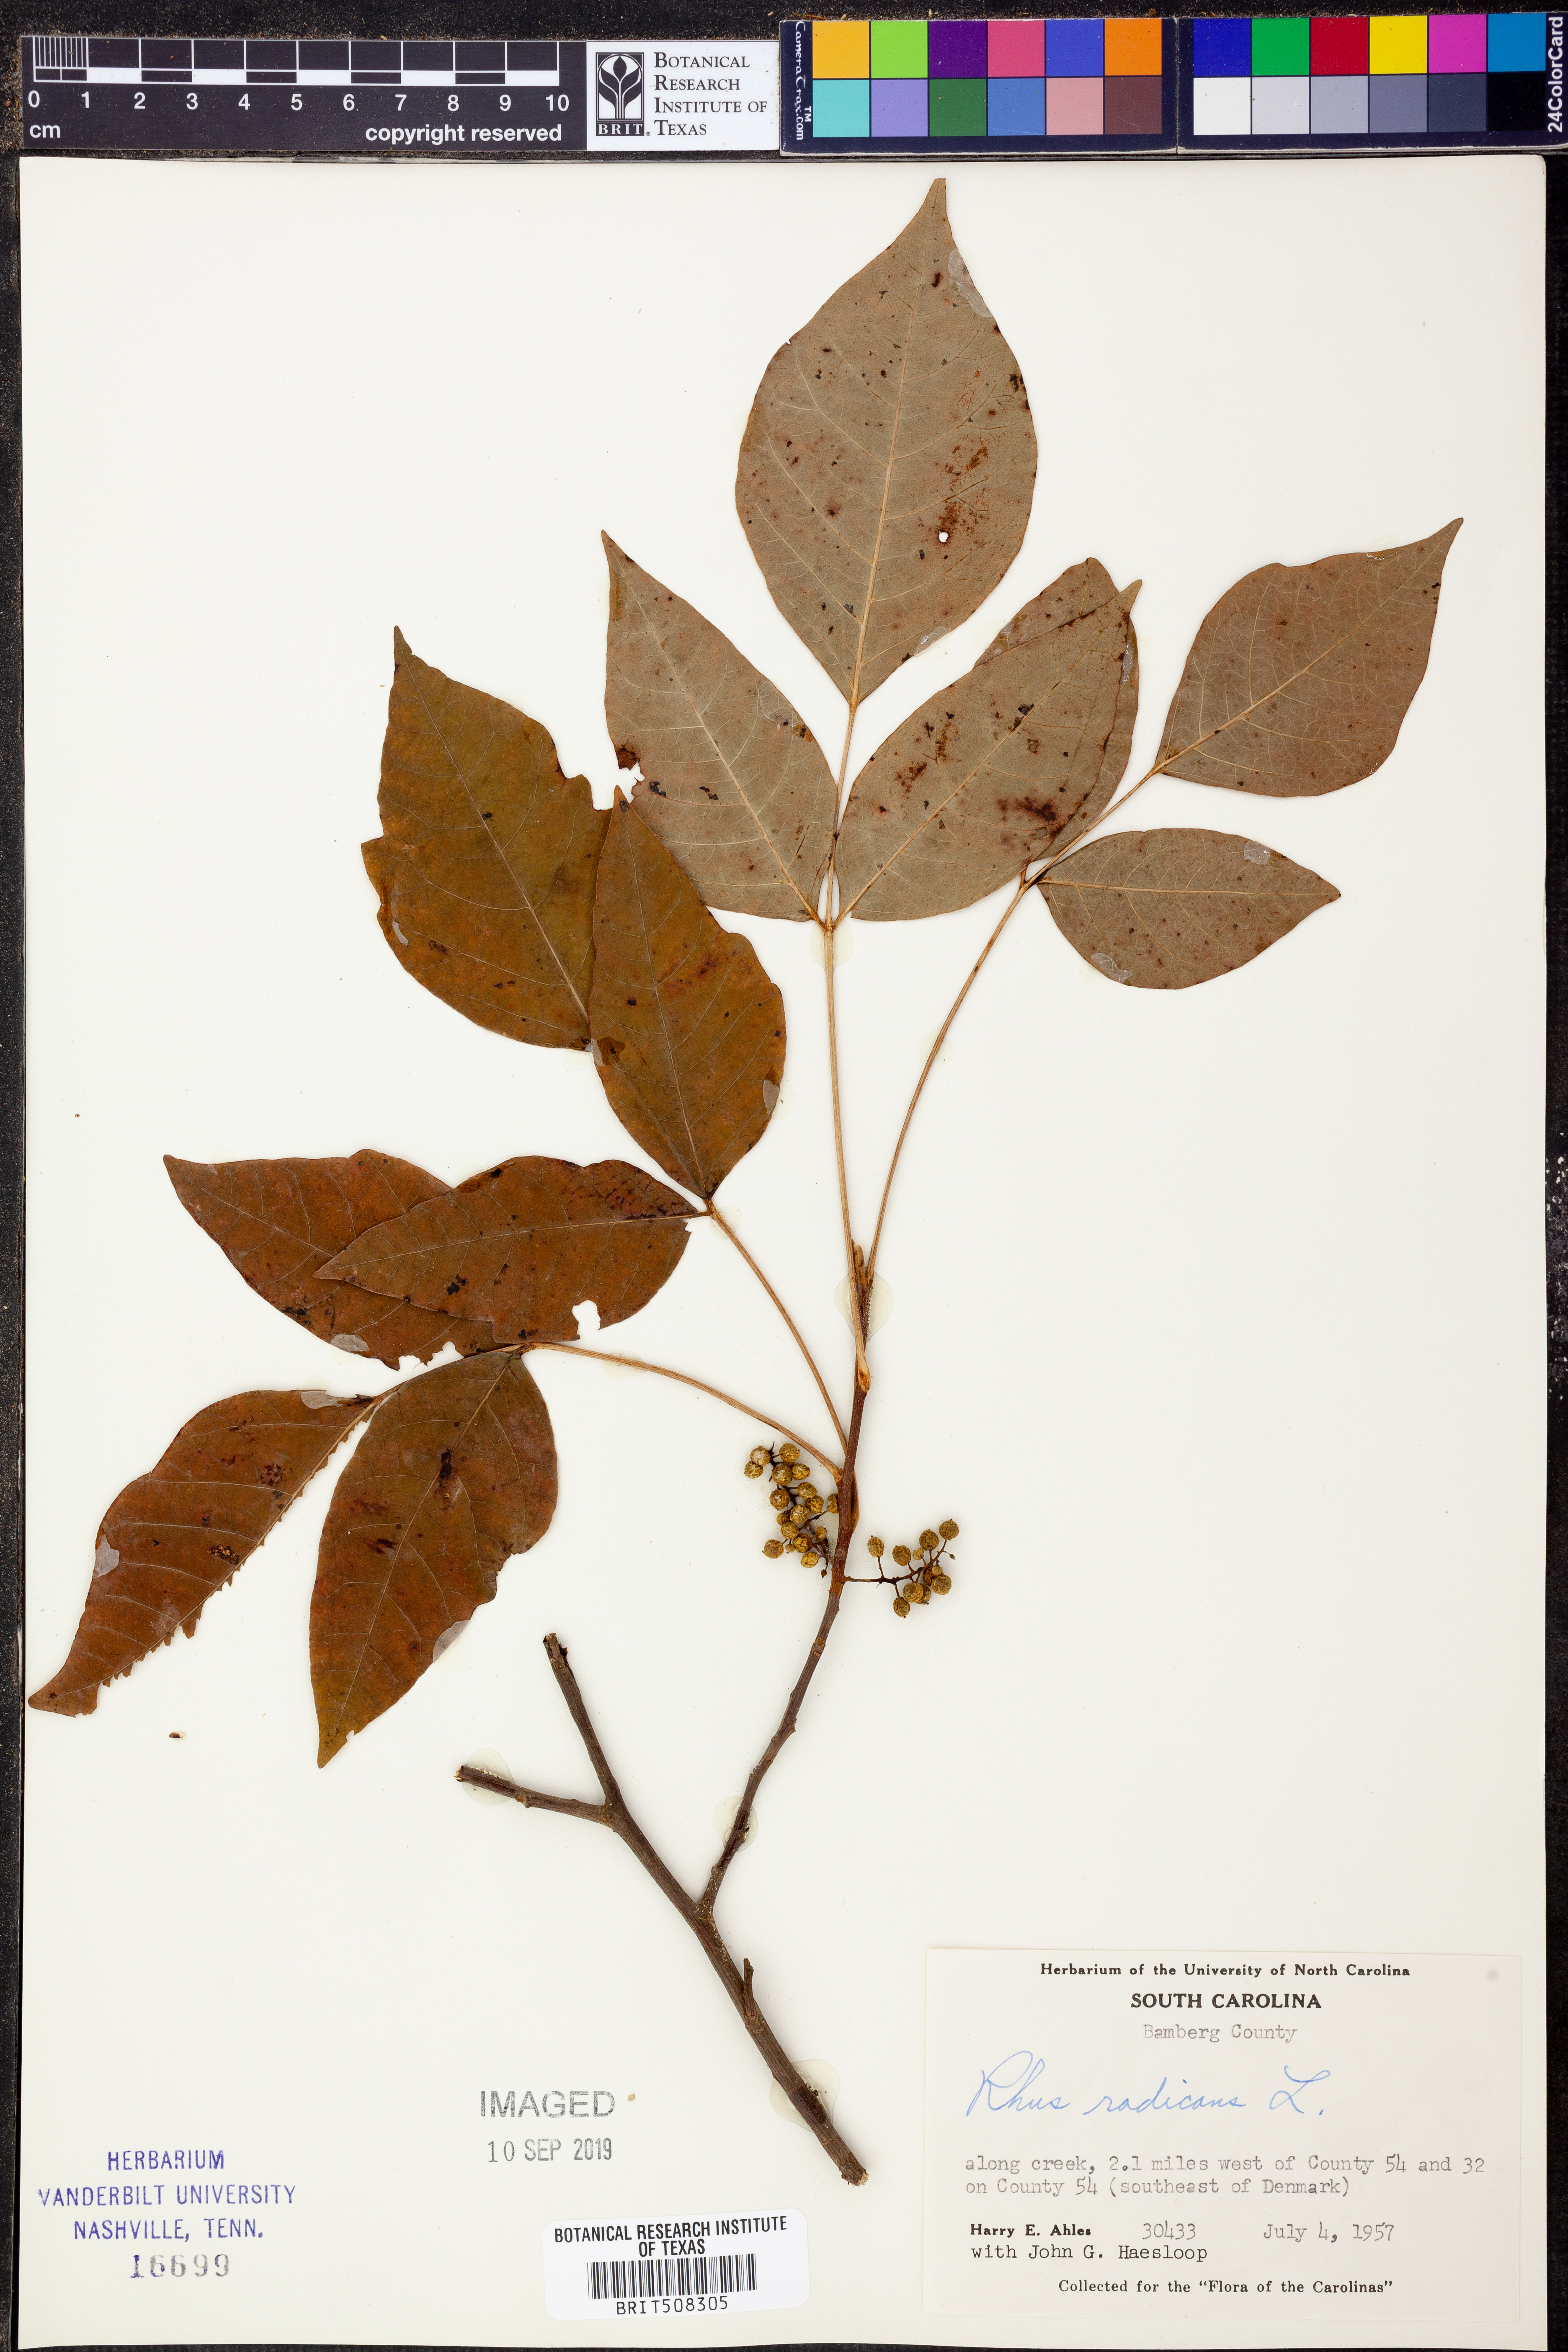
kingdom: Plantae
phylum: Tracheophyta
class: Magnoliopsida
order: Sapindales
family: Anacardiaceae
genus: Toxicodendron
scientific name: Toxicodendron radicans
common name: Poison ivy
